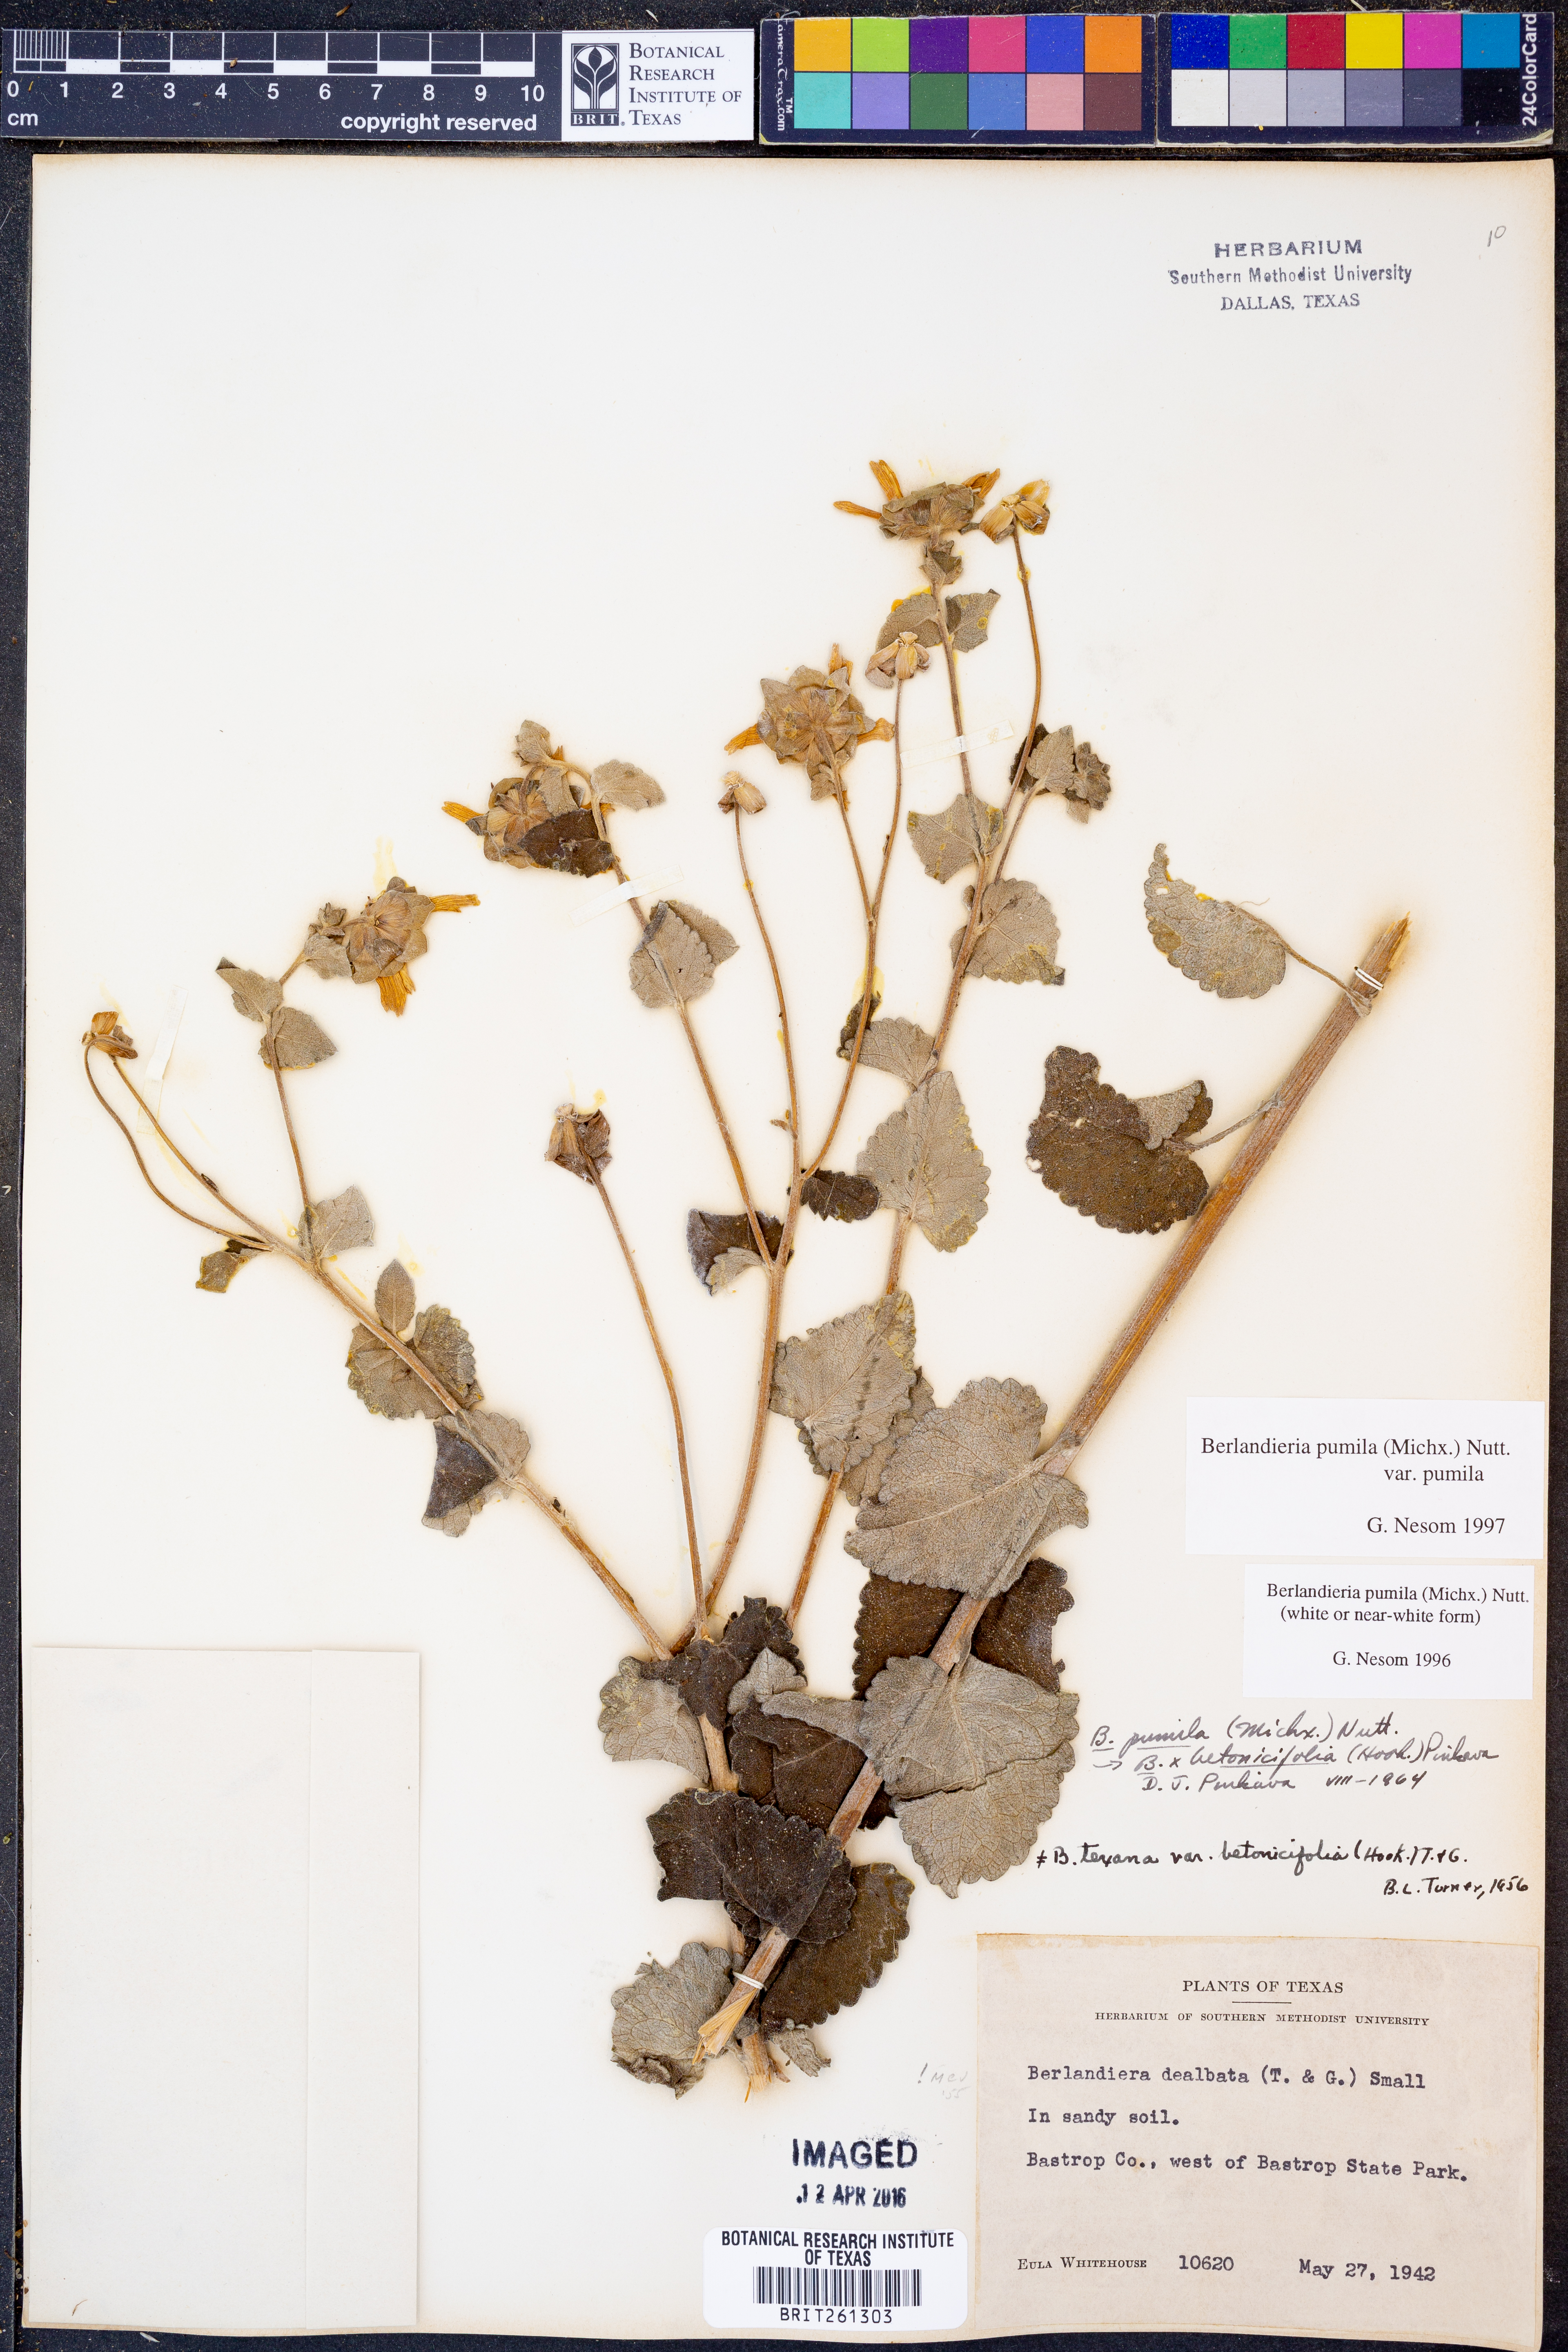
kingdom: Plantae
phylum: Tracheophyta
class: Magnoliopsida
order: Asterales
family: Asteraceae
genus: Berlandiera
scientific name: Berlandiera pumila
